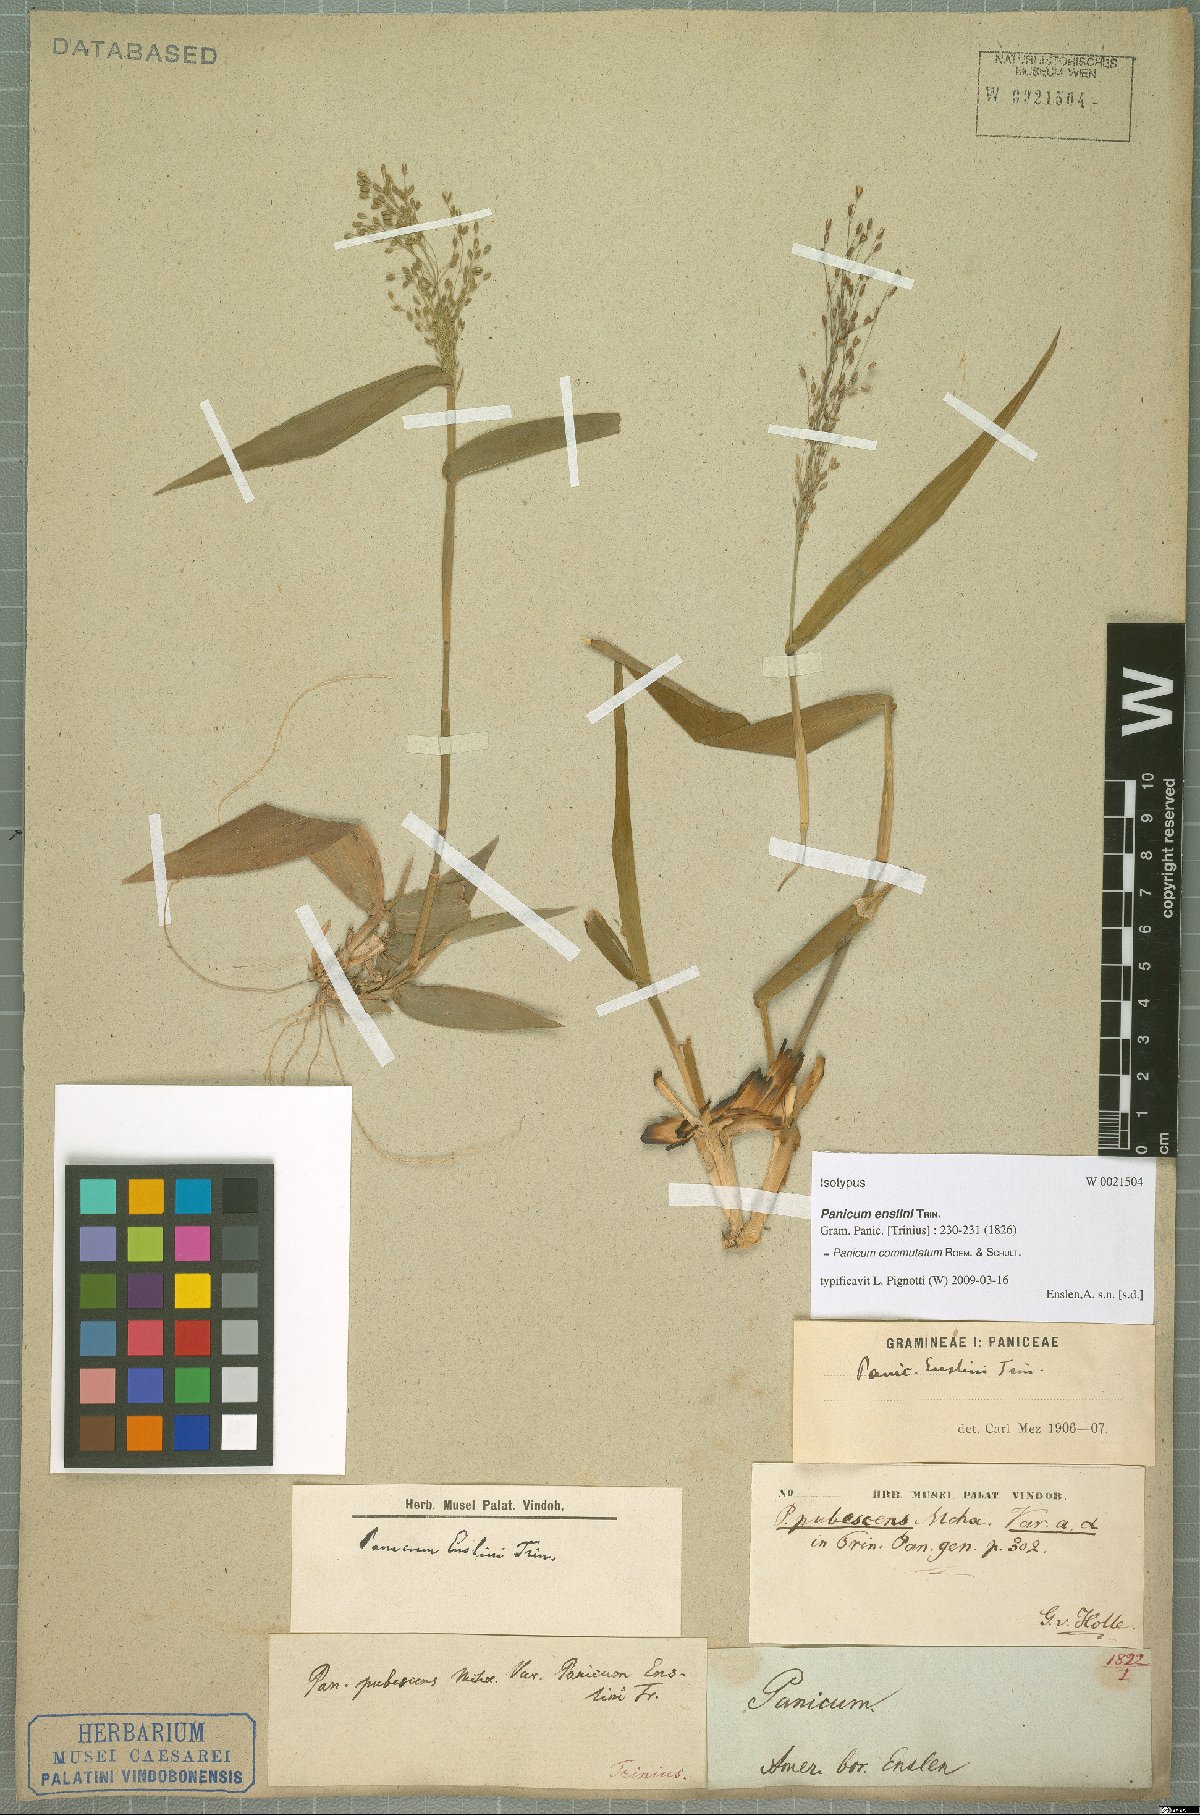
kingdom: Plantae
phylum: Tracheophyta
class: Liliopsida
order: Poales
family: Poaceae
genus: Dichanthelium
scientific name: Dichanthelium commutatum
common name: Variable witchgrass
